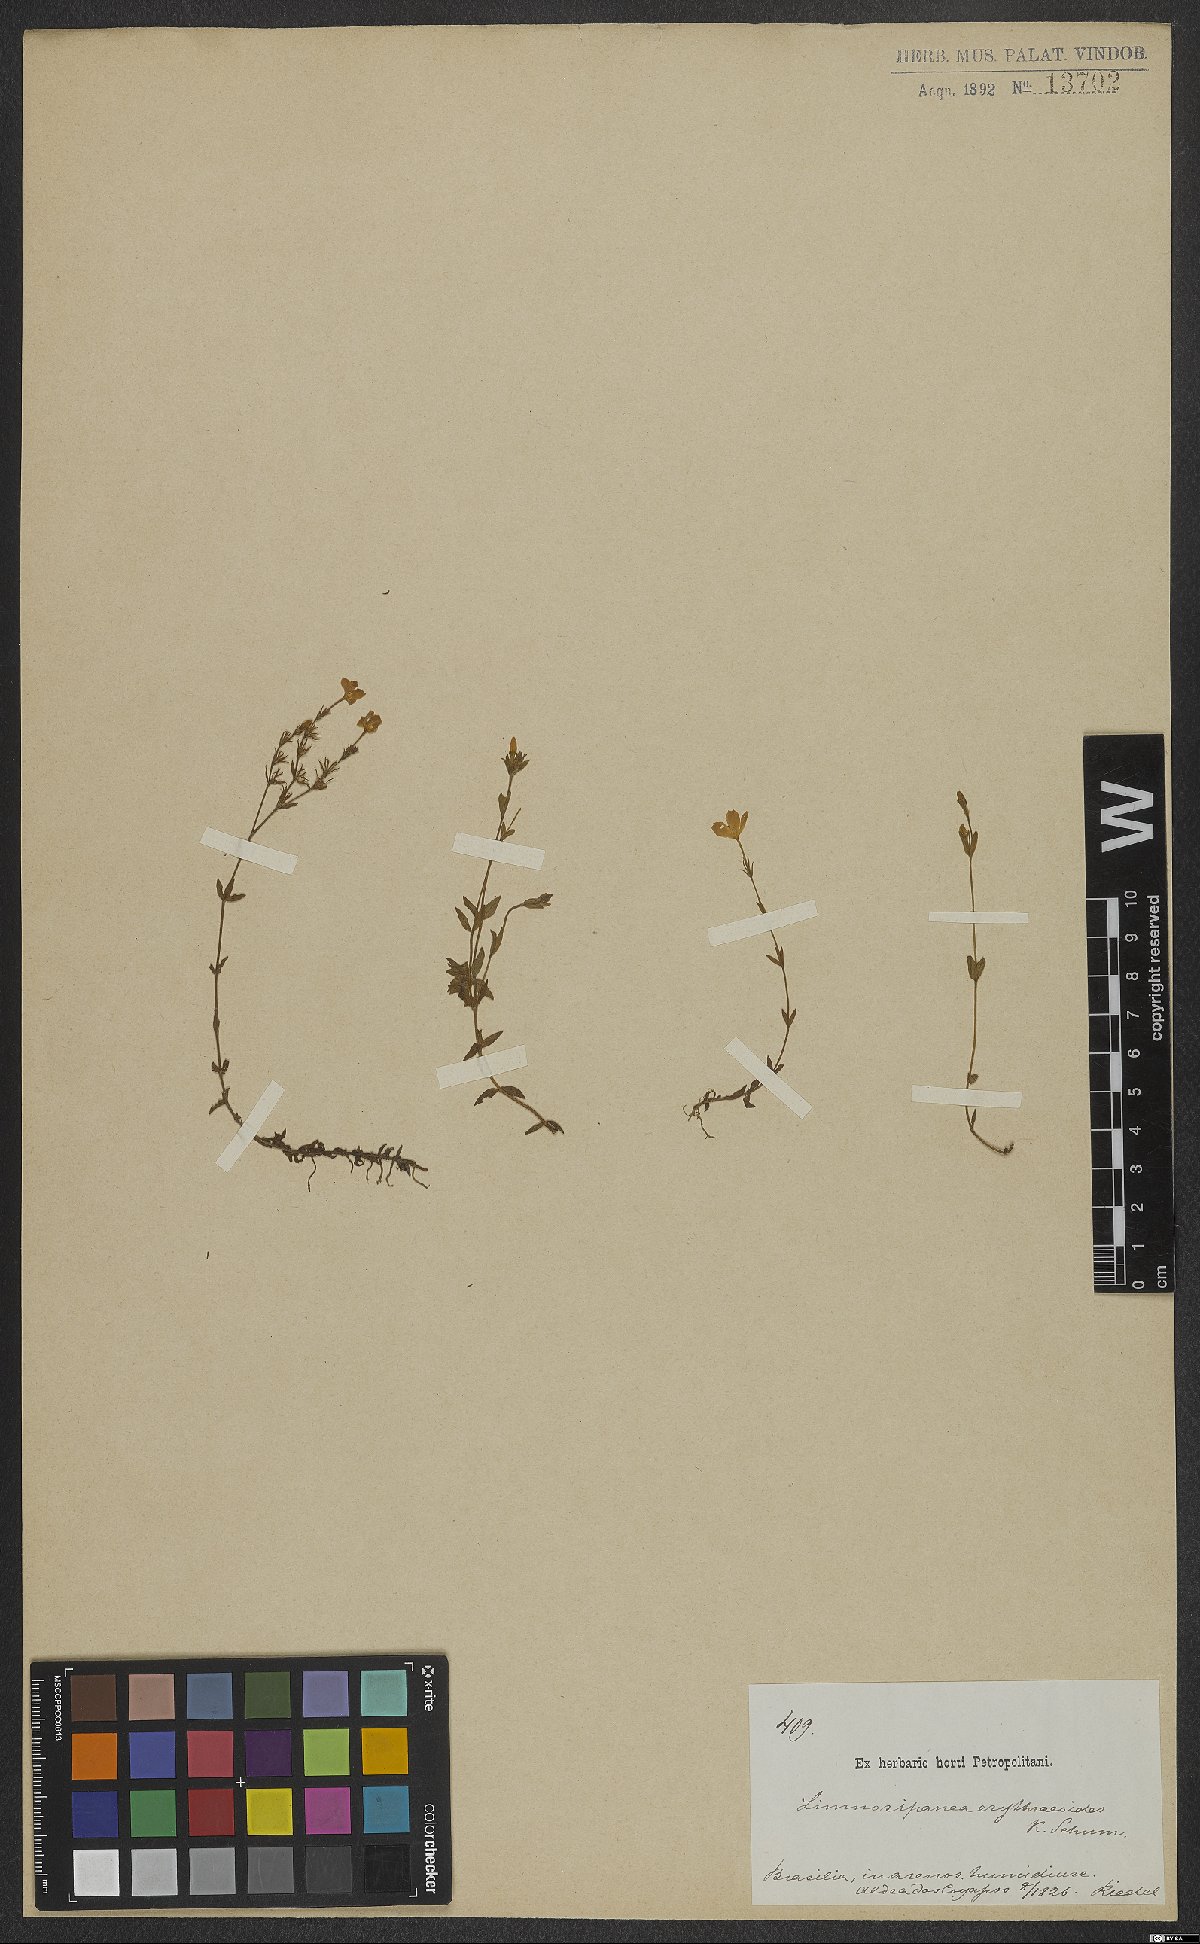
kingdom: Plantae
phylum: Tracheophyta
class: Magnoliopsida
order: Gentianales
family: Rubiaceae
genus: Limnosipanea
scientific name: Limnosipanea erythraeoides
